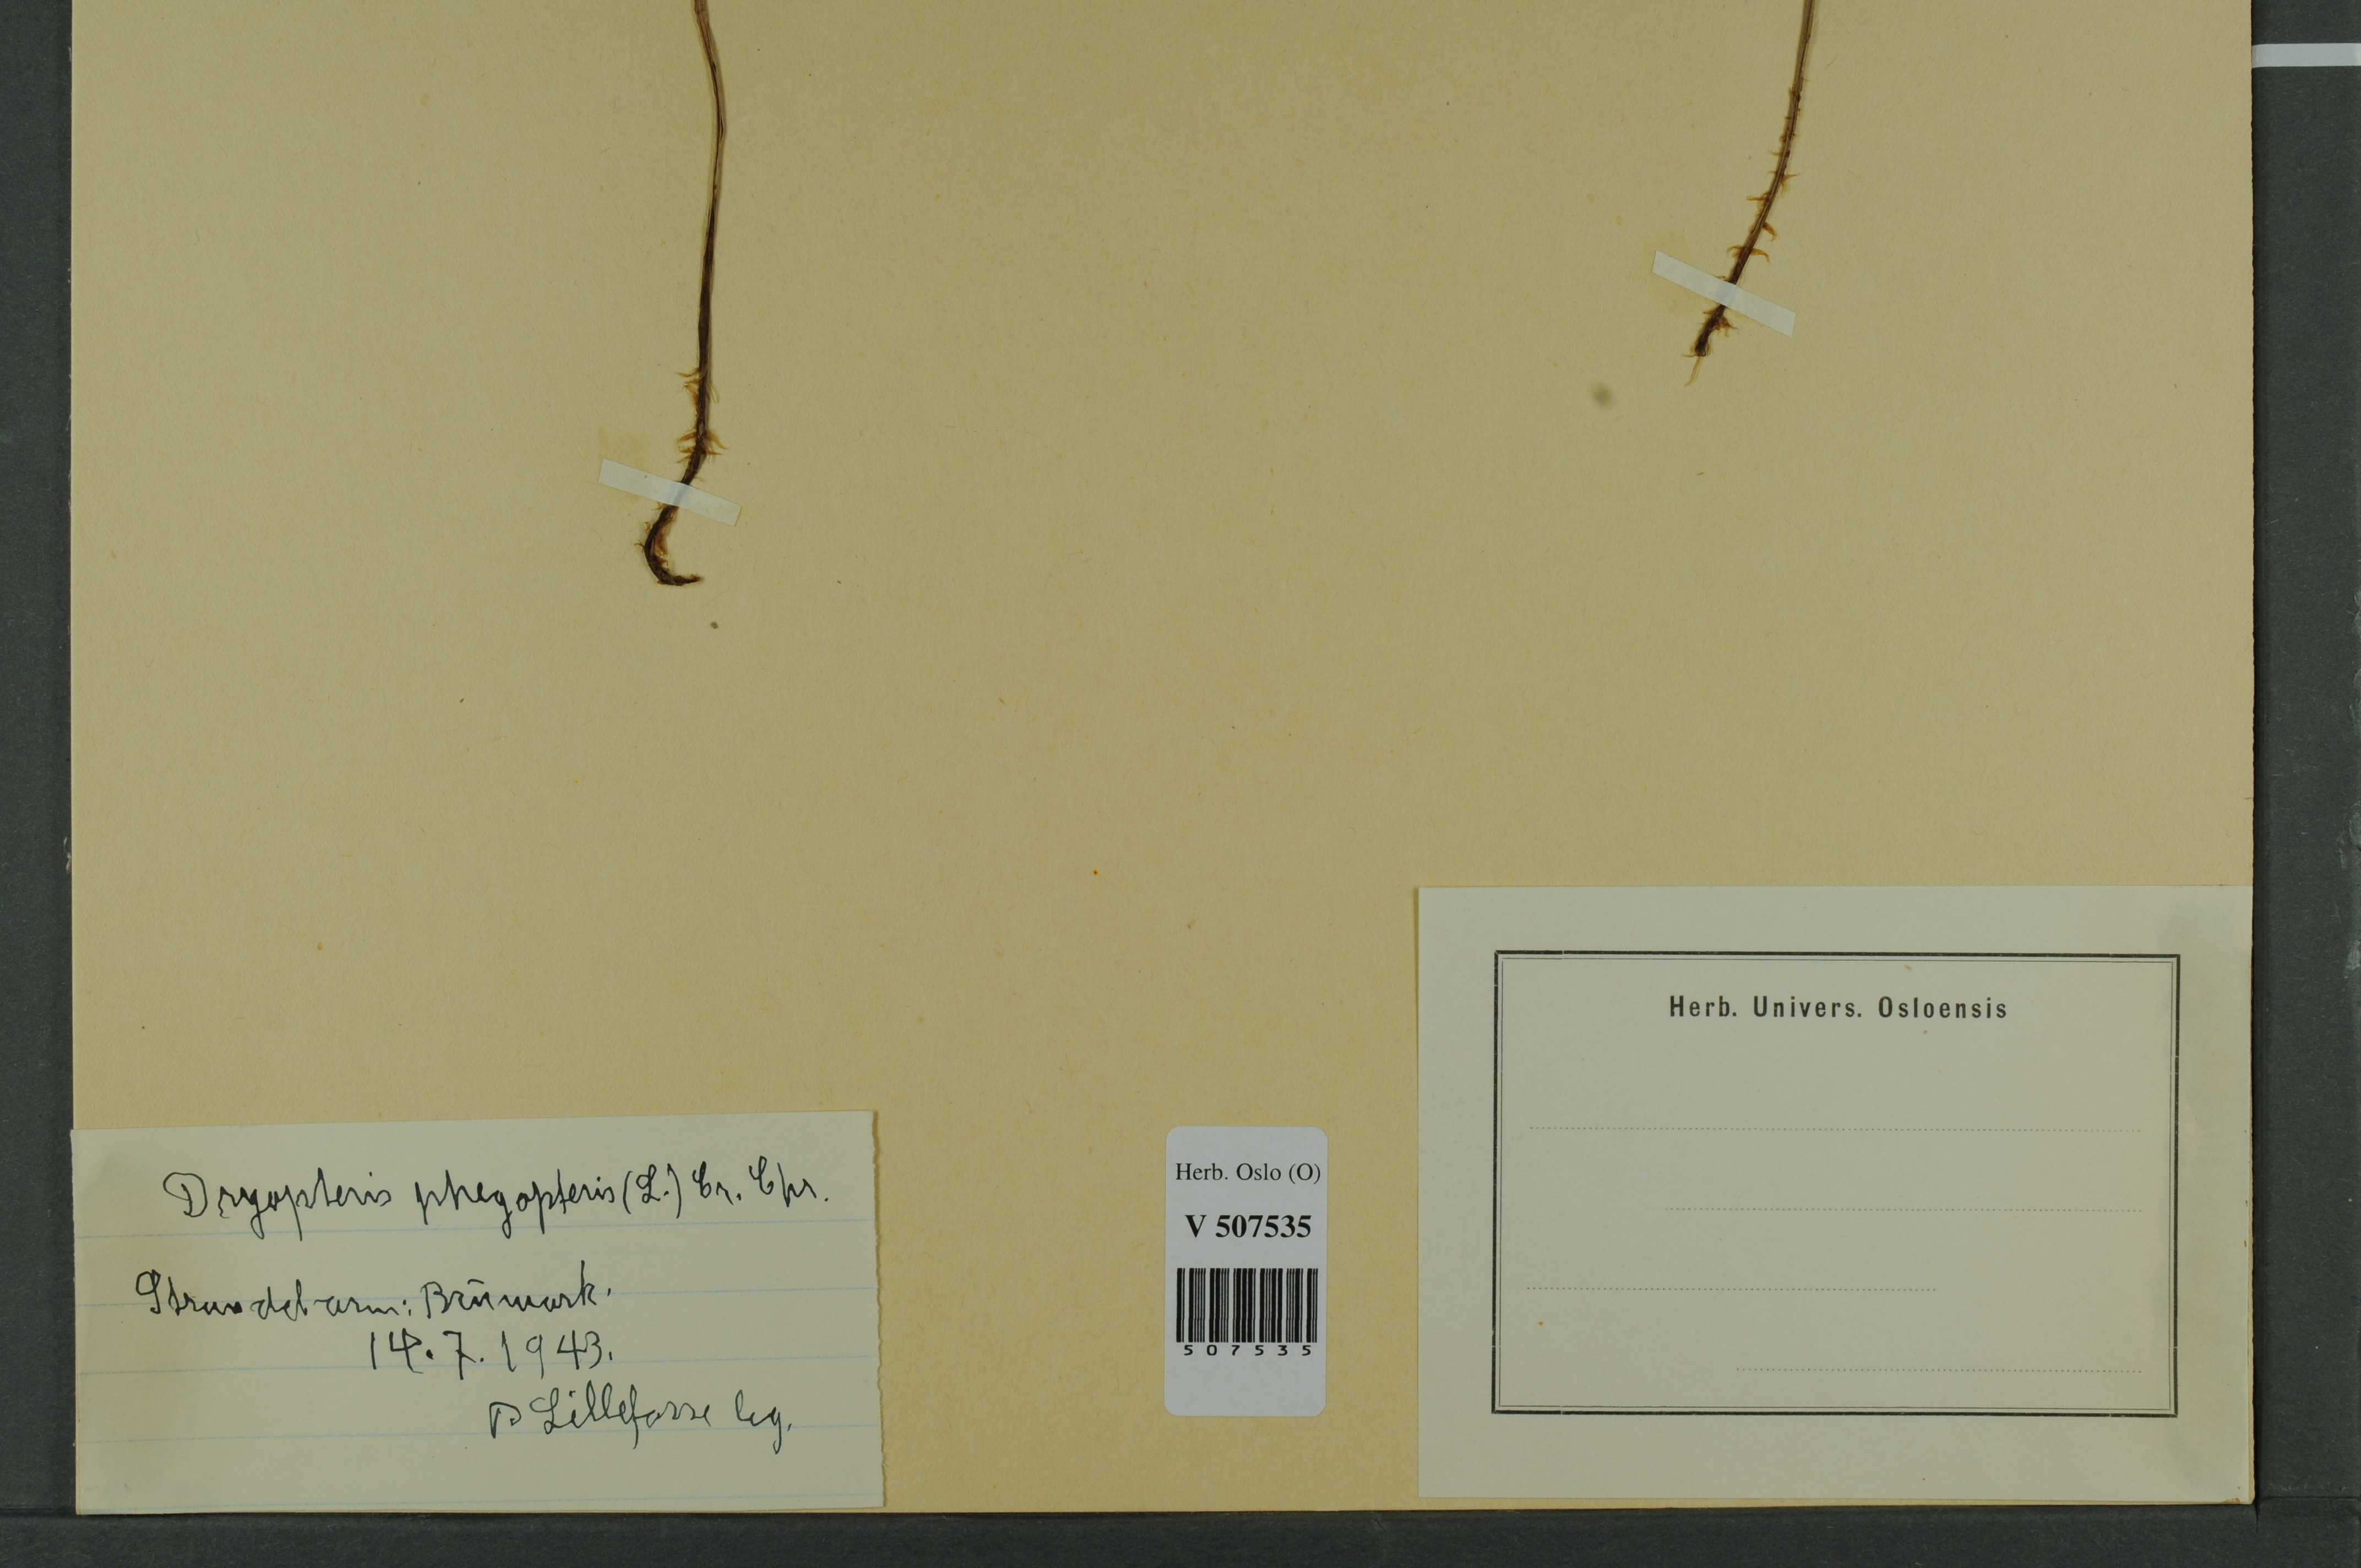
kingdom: Plantae
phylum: Tracheophyta
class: Polypodiopsida
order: Polypodiales
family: Thelypteridaceae
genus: Phegopteris
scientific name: Phegopteris connectilis
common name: Beech fern
